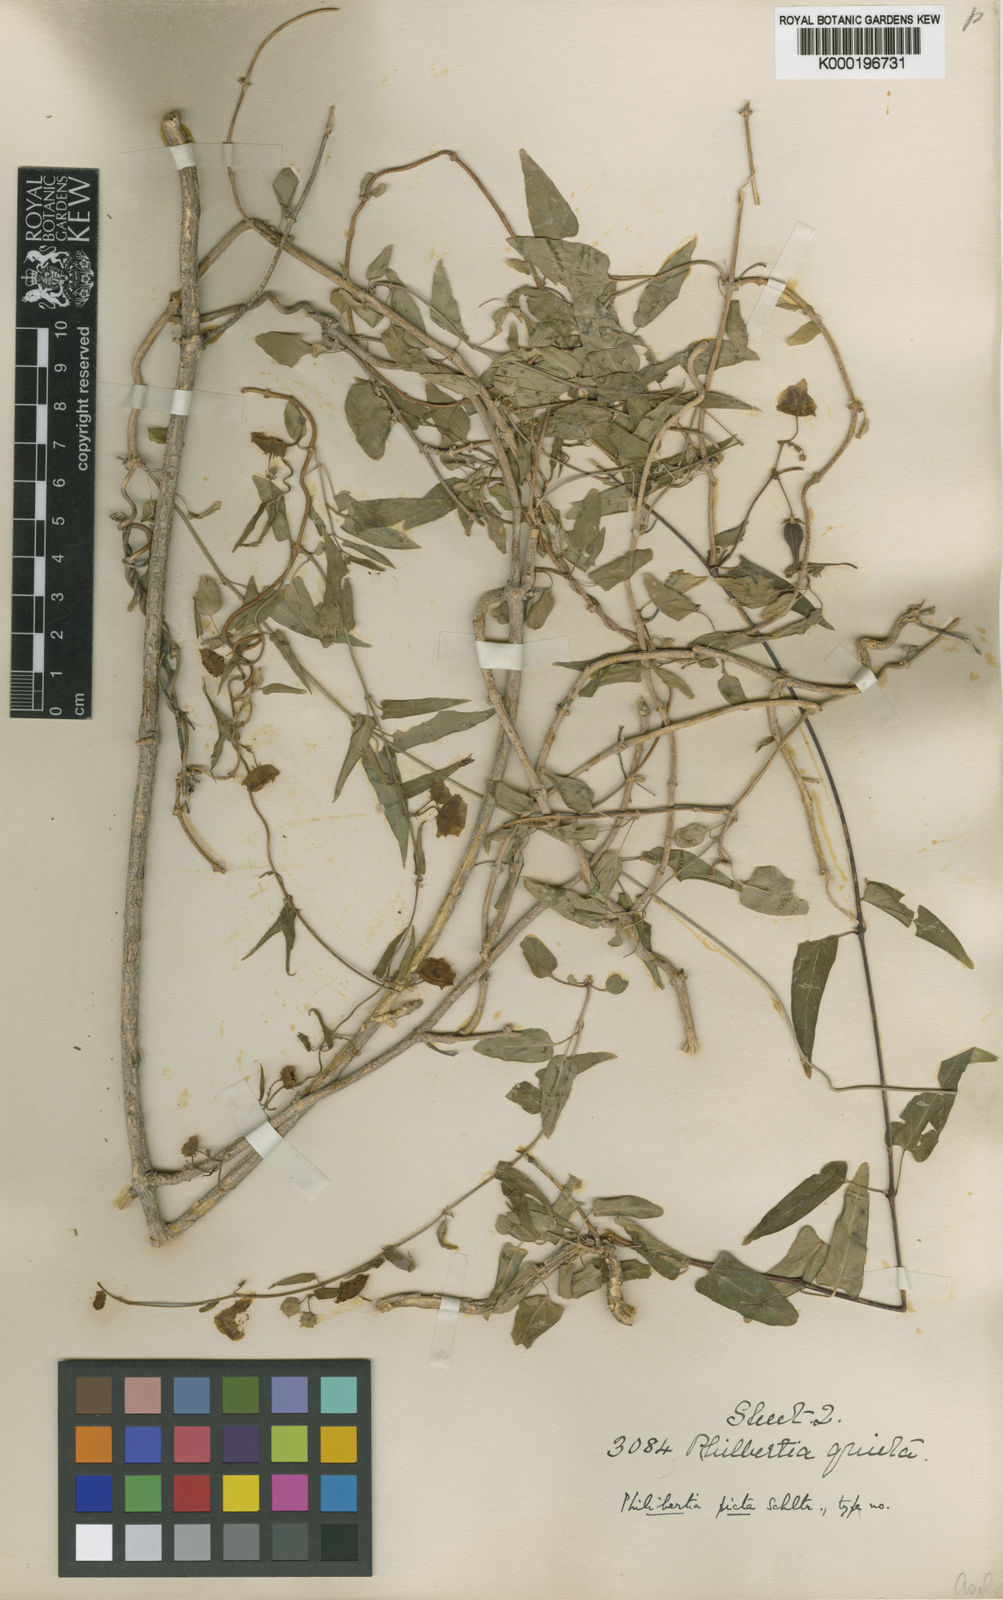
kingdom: Plantae
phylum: Tracheophyta
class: Magnoliopsida
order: Gentianales
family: Apocynaceae
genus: Philibertia
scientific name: Philibertia picta
